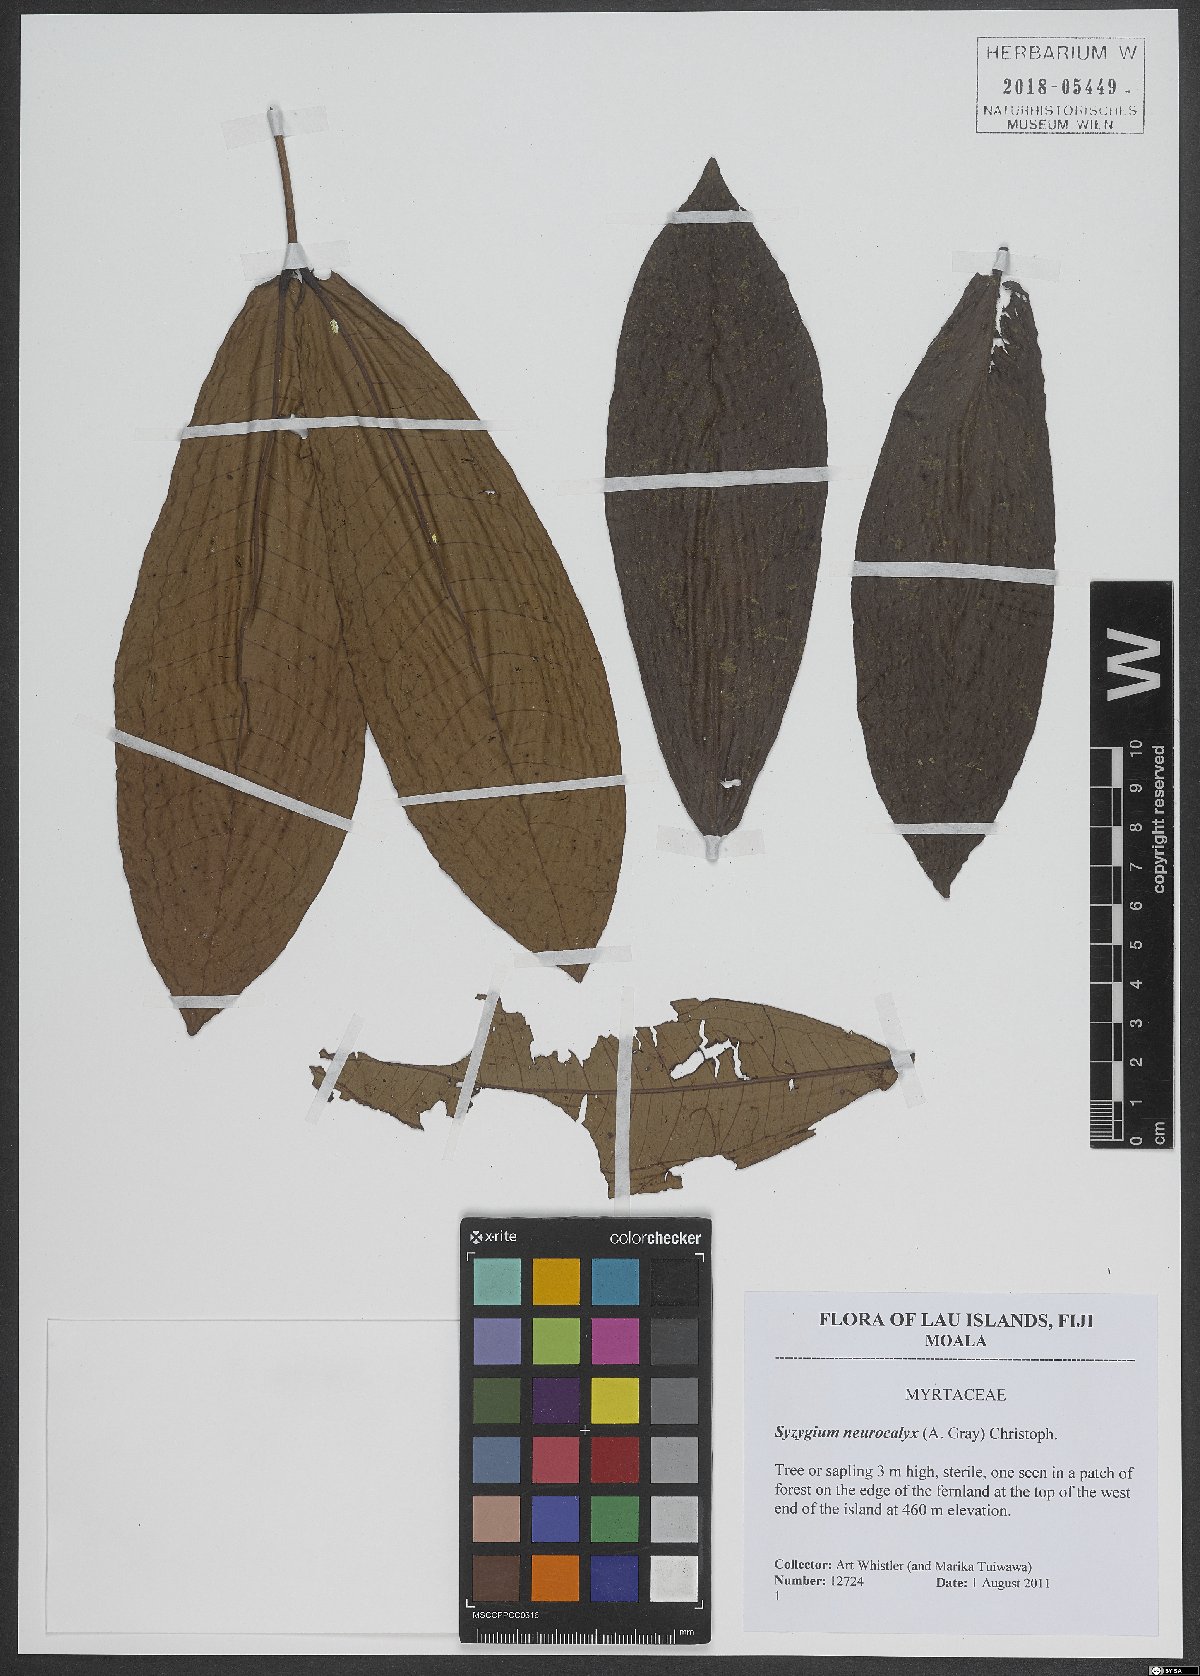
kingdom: Plantae
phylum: Tracheophyta
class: Magnoliopsida
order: Myrtales
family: Myrtaceae
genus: Syzygium
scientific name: Syzygium neurocalyx
